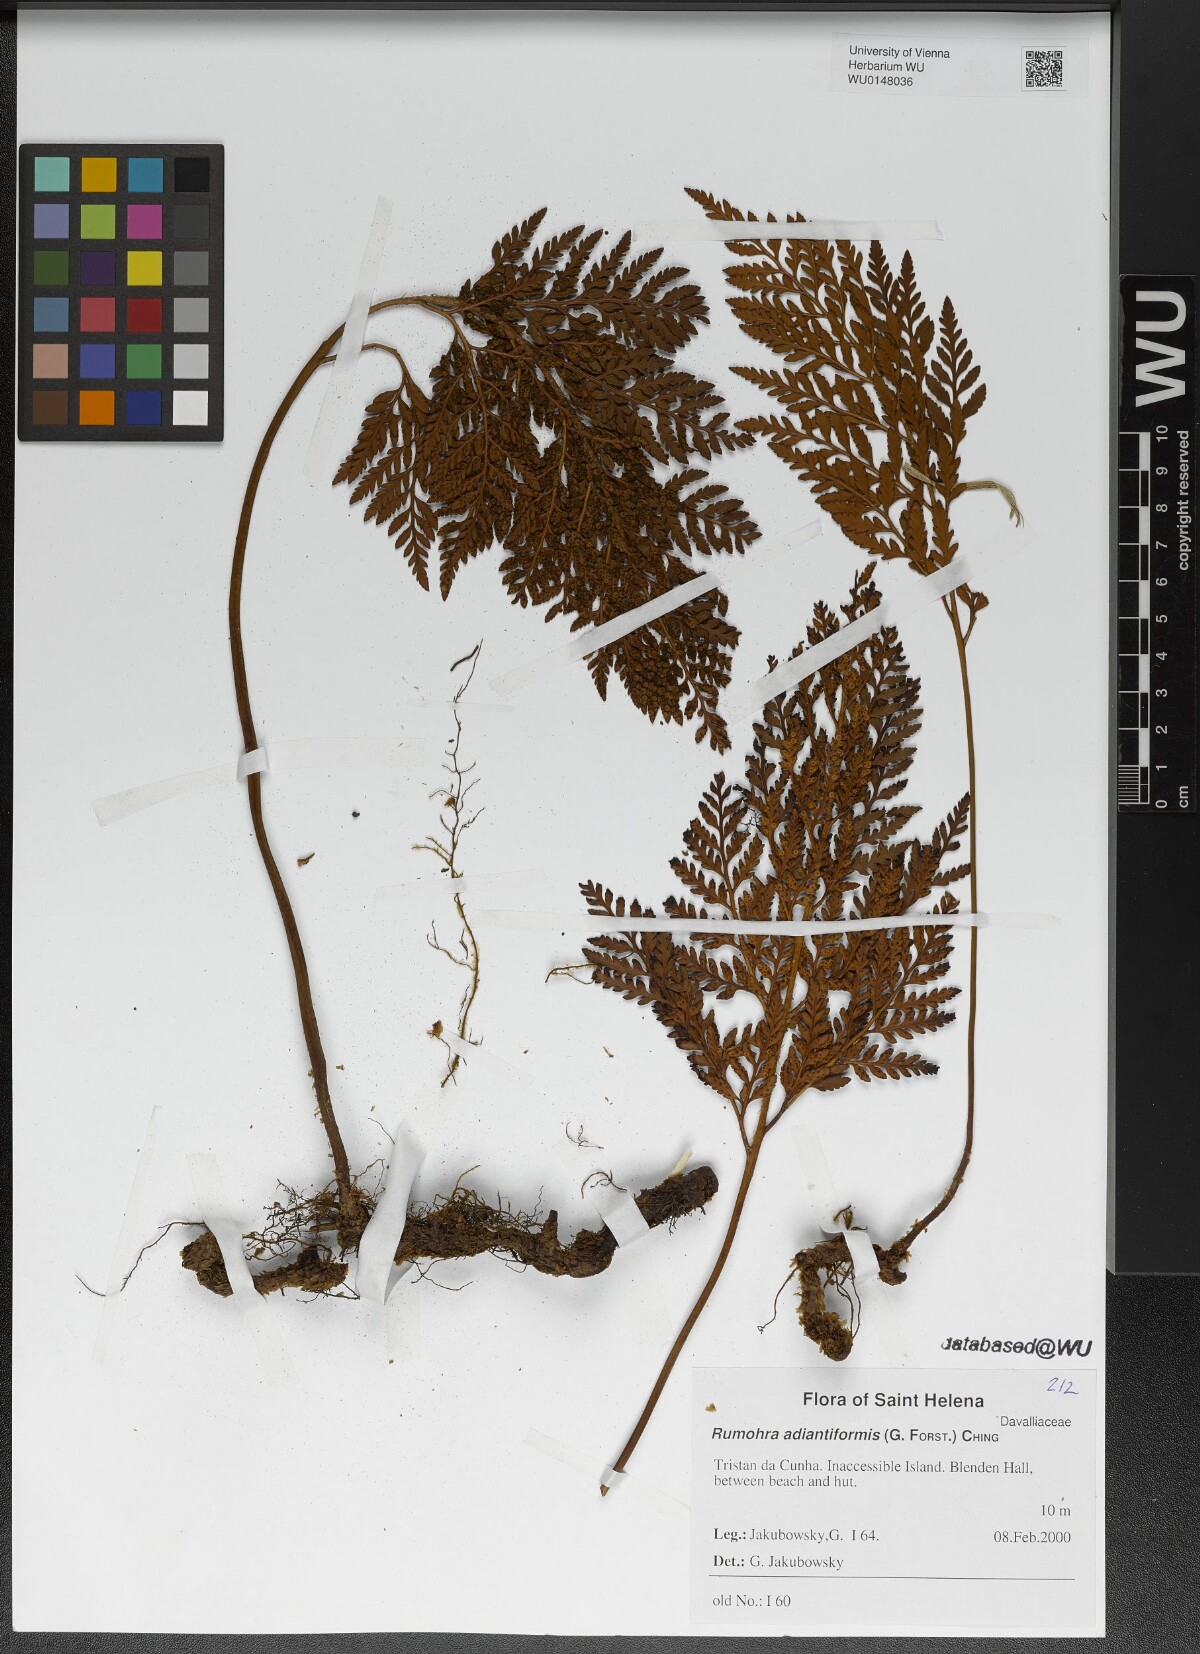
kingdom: Plantae
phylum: Tracheophyta
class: Polypodiopsida
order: Polypodiales
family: Dryopteridaceae
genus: Rumohra
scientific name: Rumohra adiantiformis
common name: Leather fern
